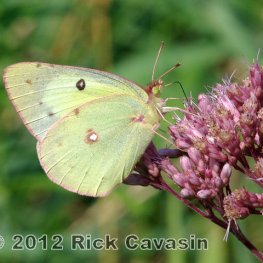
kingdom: Animalia
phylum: Arthropoda
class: Insecta
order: Lepidoptera
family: Pieridae
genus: Colias
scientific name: Colias philodice
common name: Clouded Sulphur
